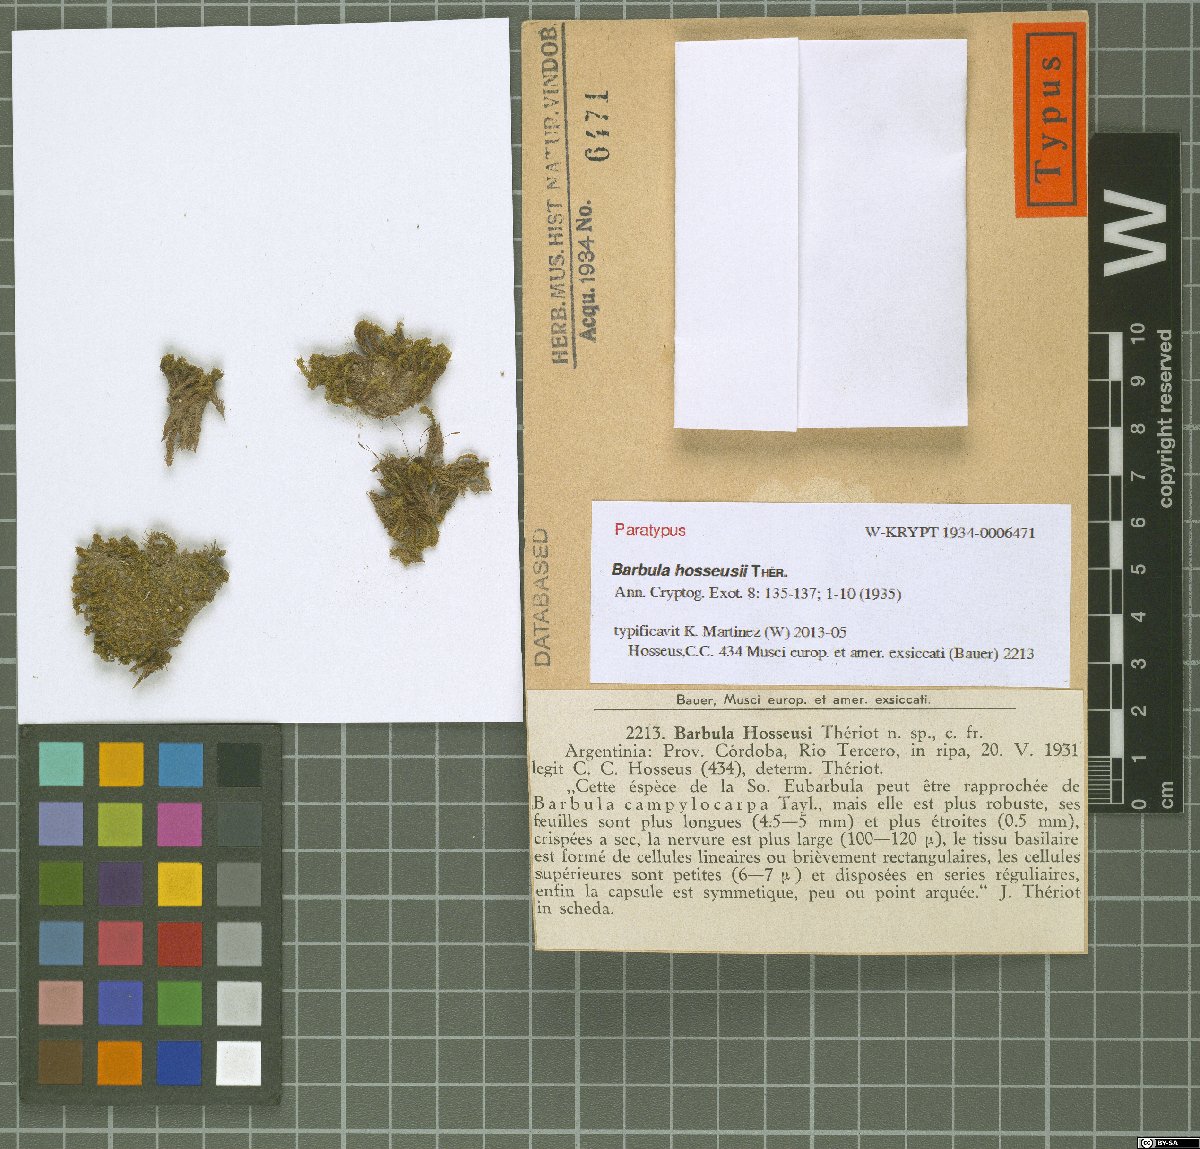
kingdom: Plantae
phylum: Bryophyta
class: Bryopsida
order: Pottiales
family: Pottiaceae
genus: Barbula
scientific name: Barbula hosseusii
